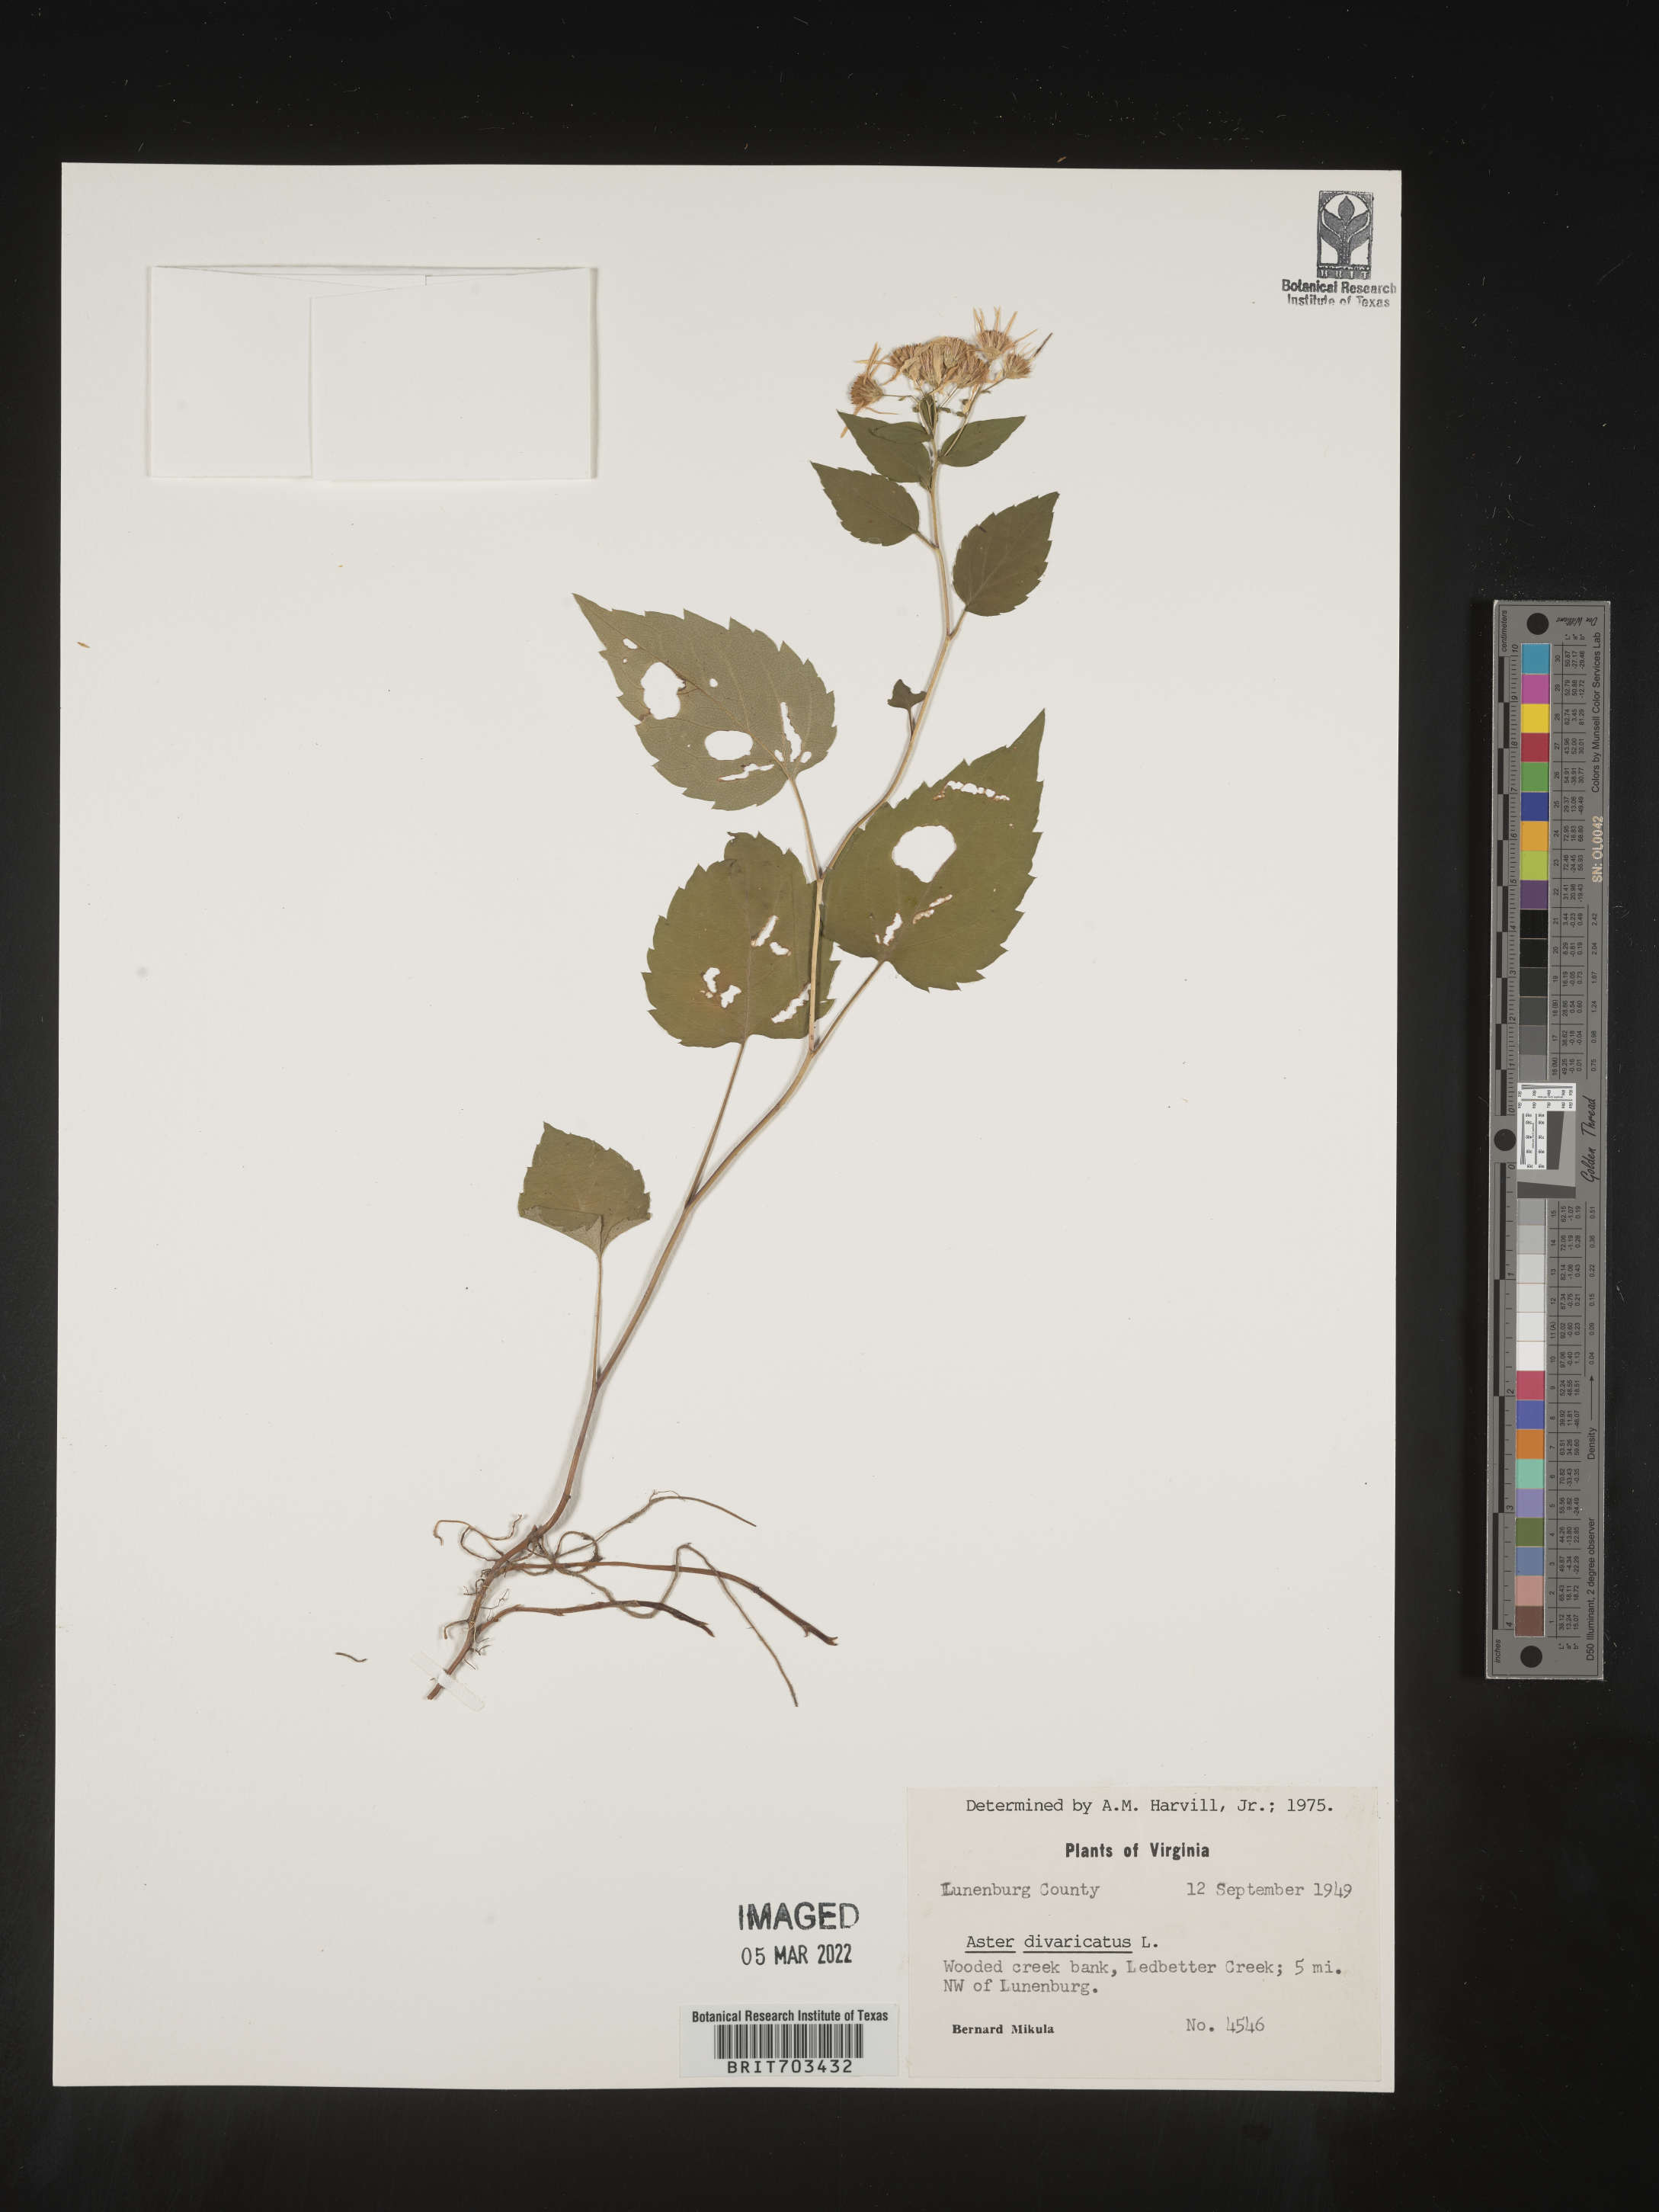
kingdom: Plantae
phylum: Tracheophyta
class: Magnoliopsida
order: Asterales
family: Asteraceae
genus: Eurybia
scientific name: Eurybia divaricata
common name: White wood aster
